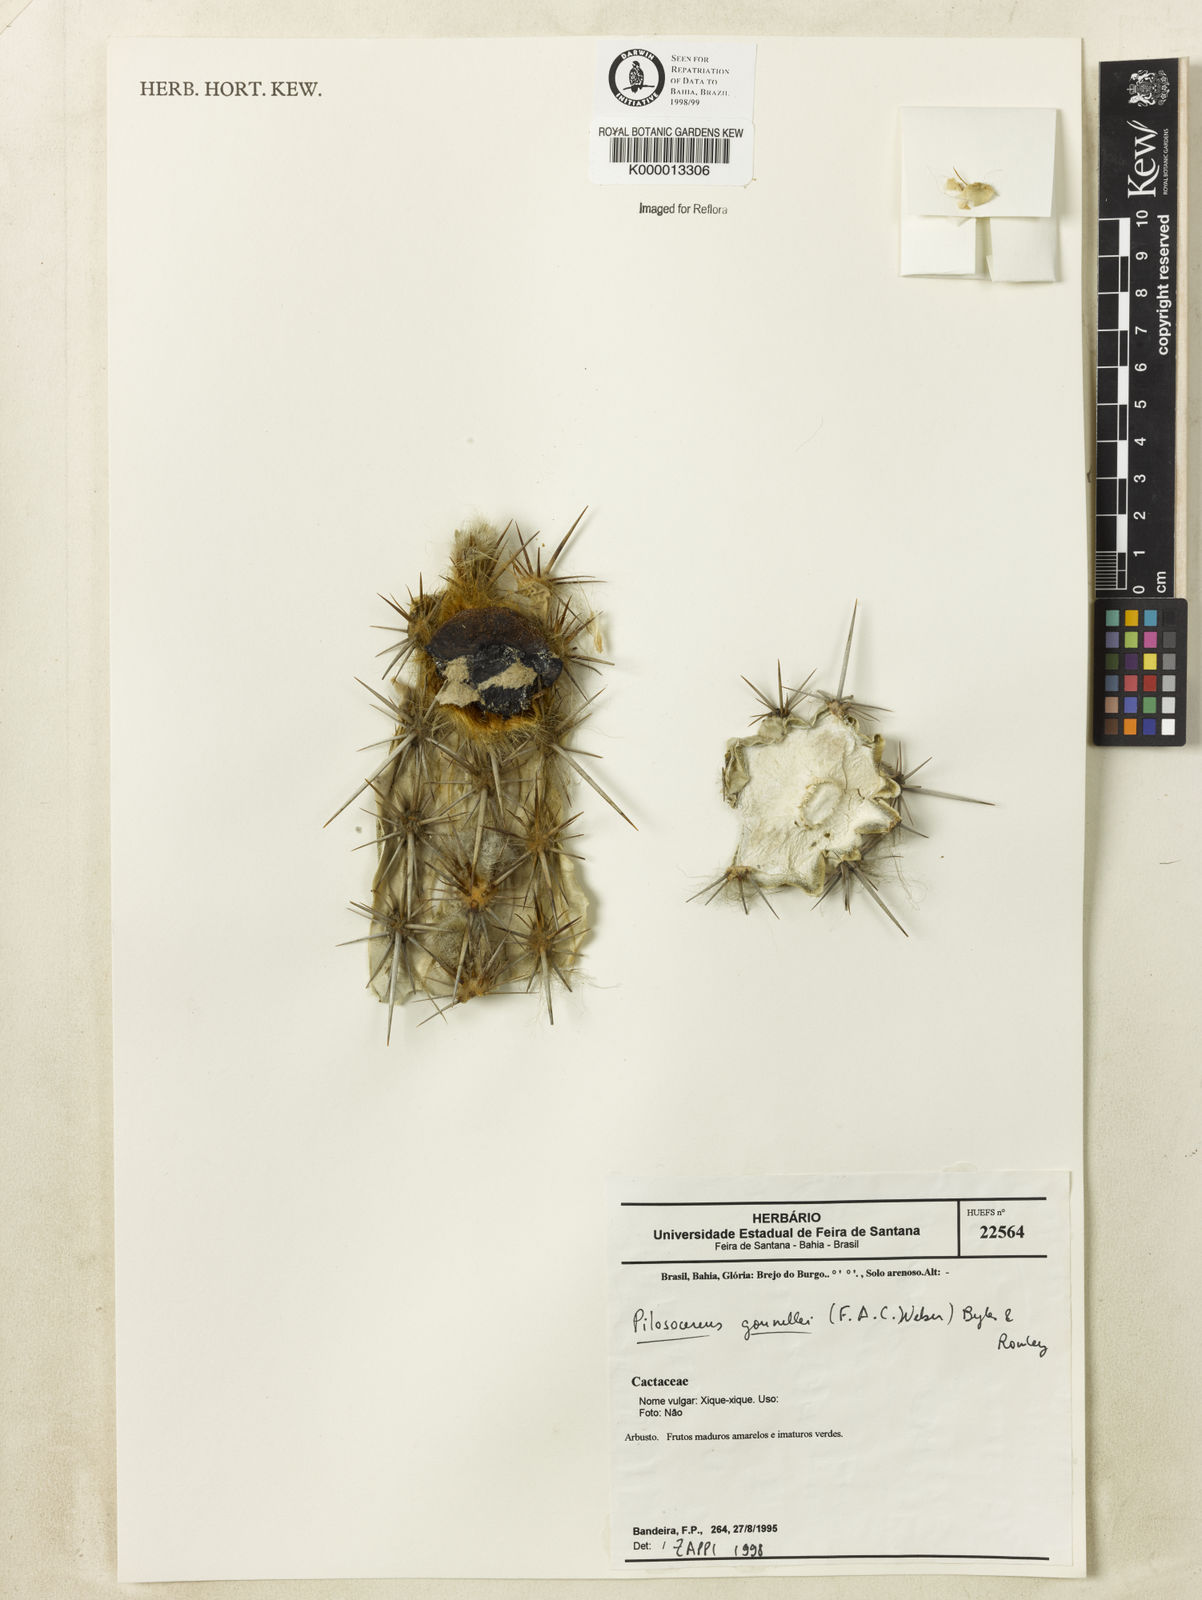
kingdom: Plantae
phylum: Tracheophyta
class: Magnoliopsida
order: Caryophyllales
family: Cactaceae
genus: Xiquexique
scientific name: Xiquexique gounellei
